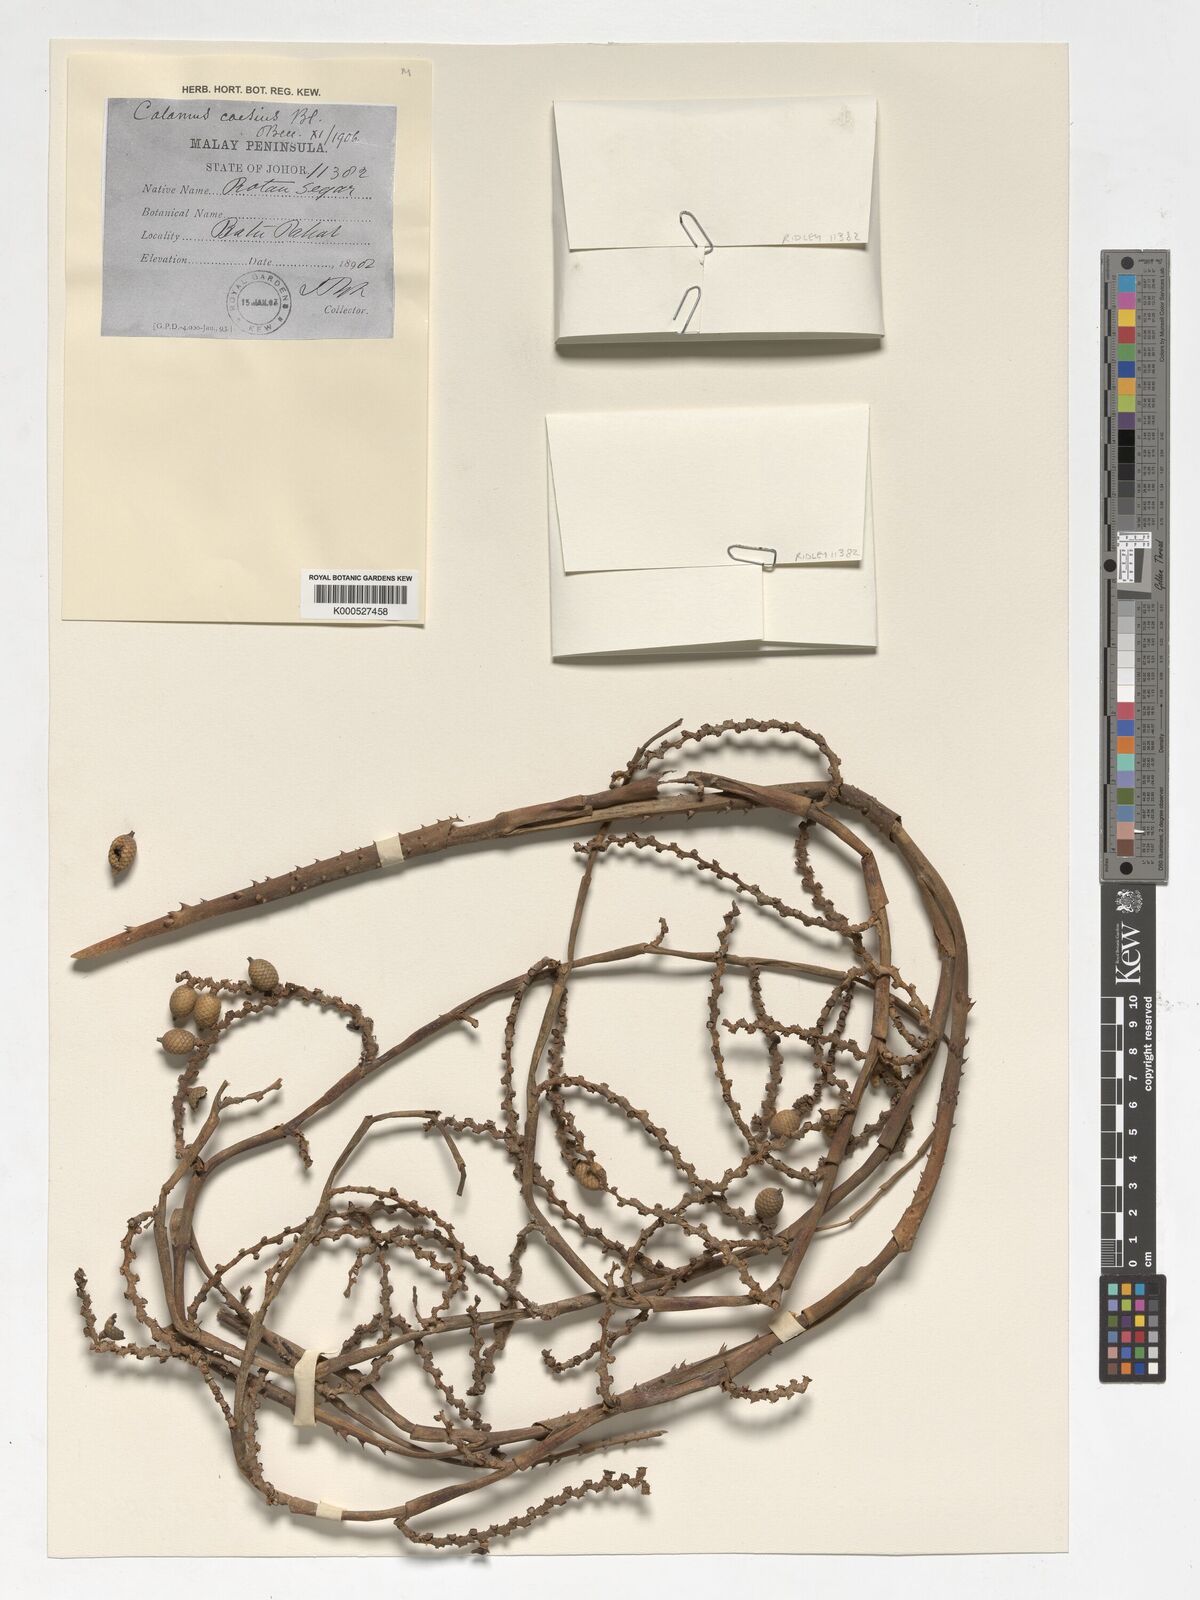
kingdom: Plantae
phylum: Tracheophyta
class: Liliopsida
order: Arecales
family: Arecaceae
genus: Calamus
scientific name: Calamus caesius
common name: Rattan palm
